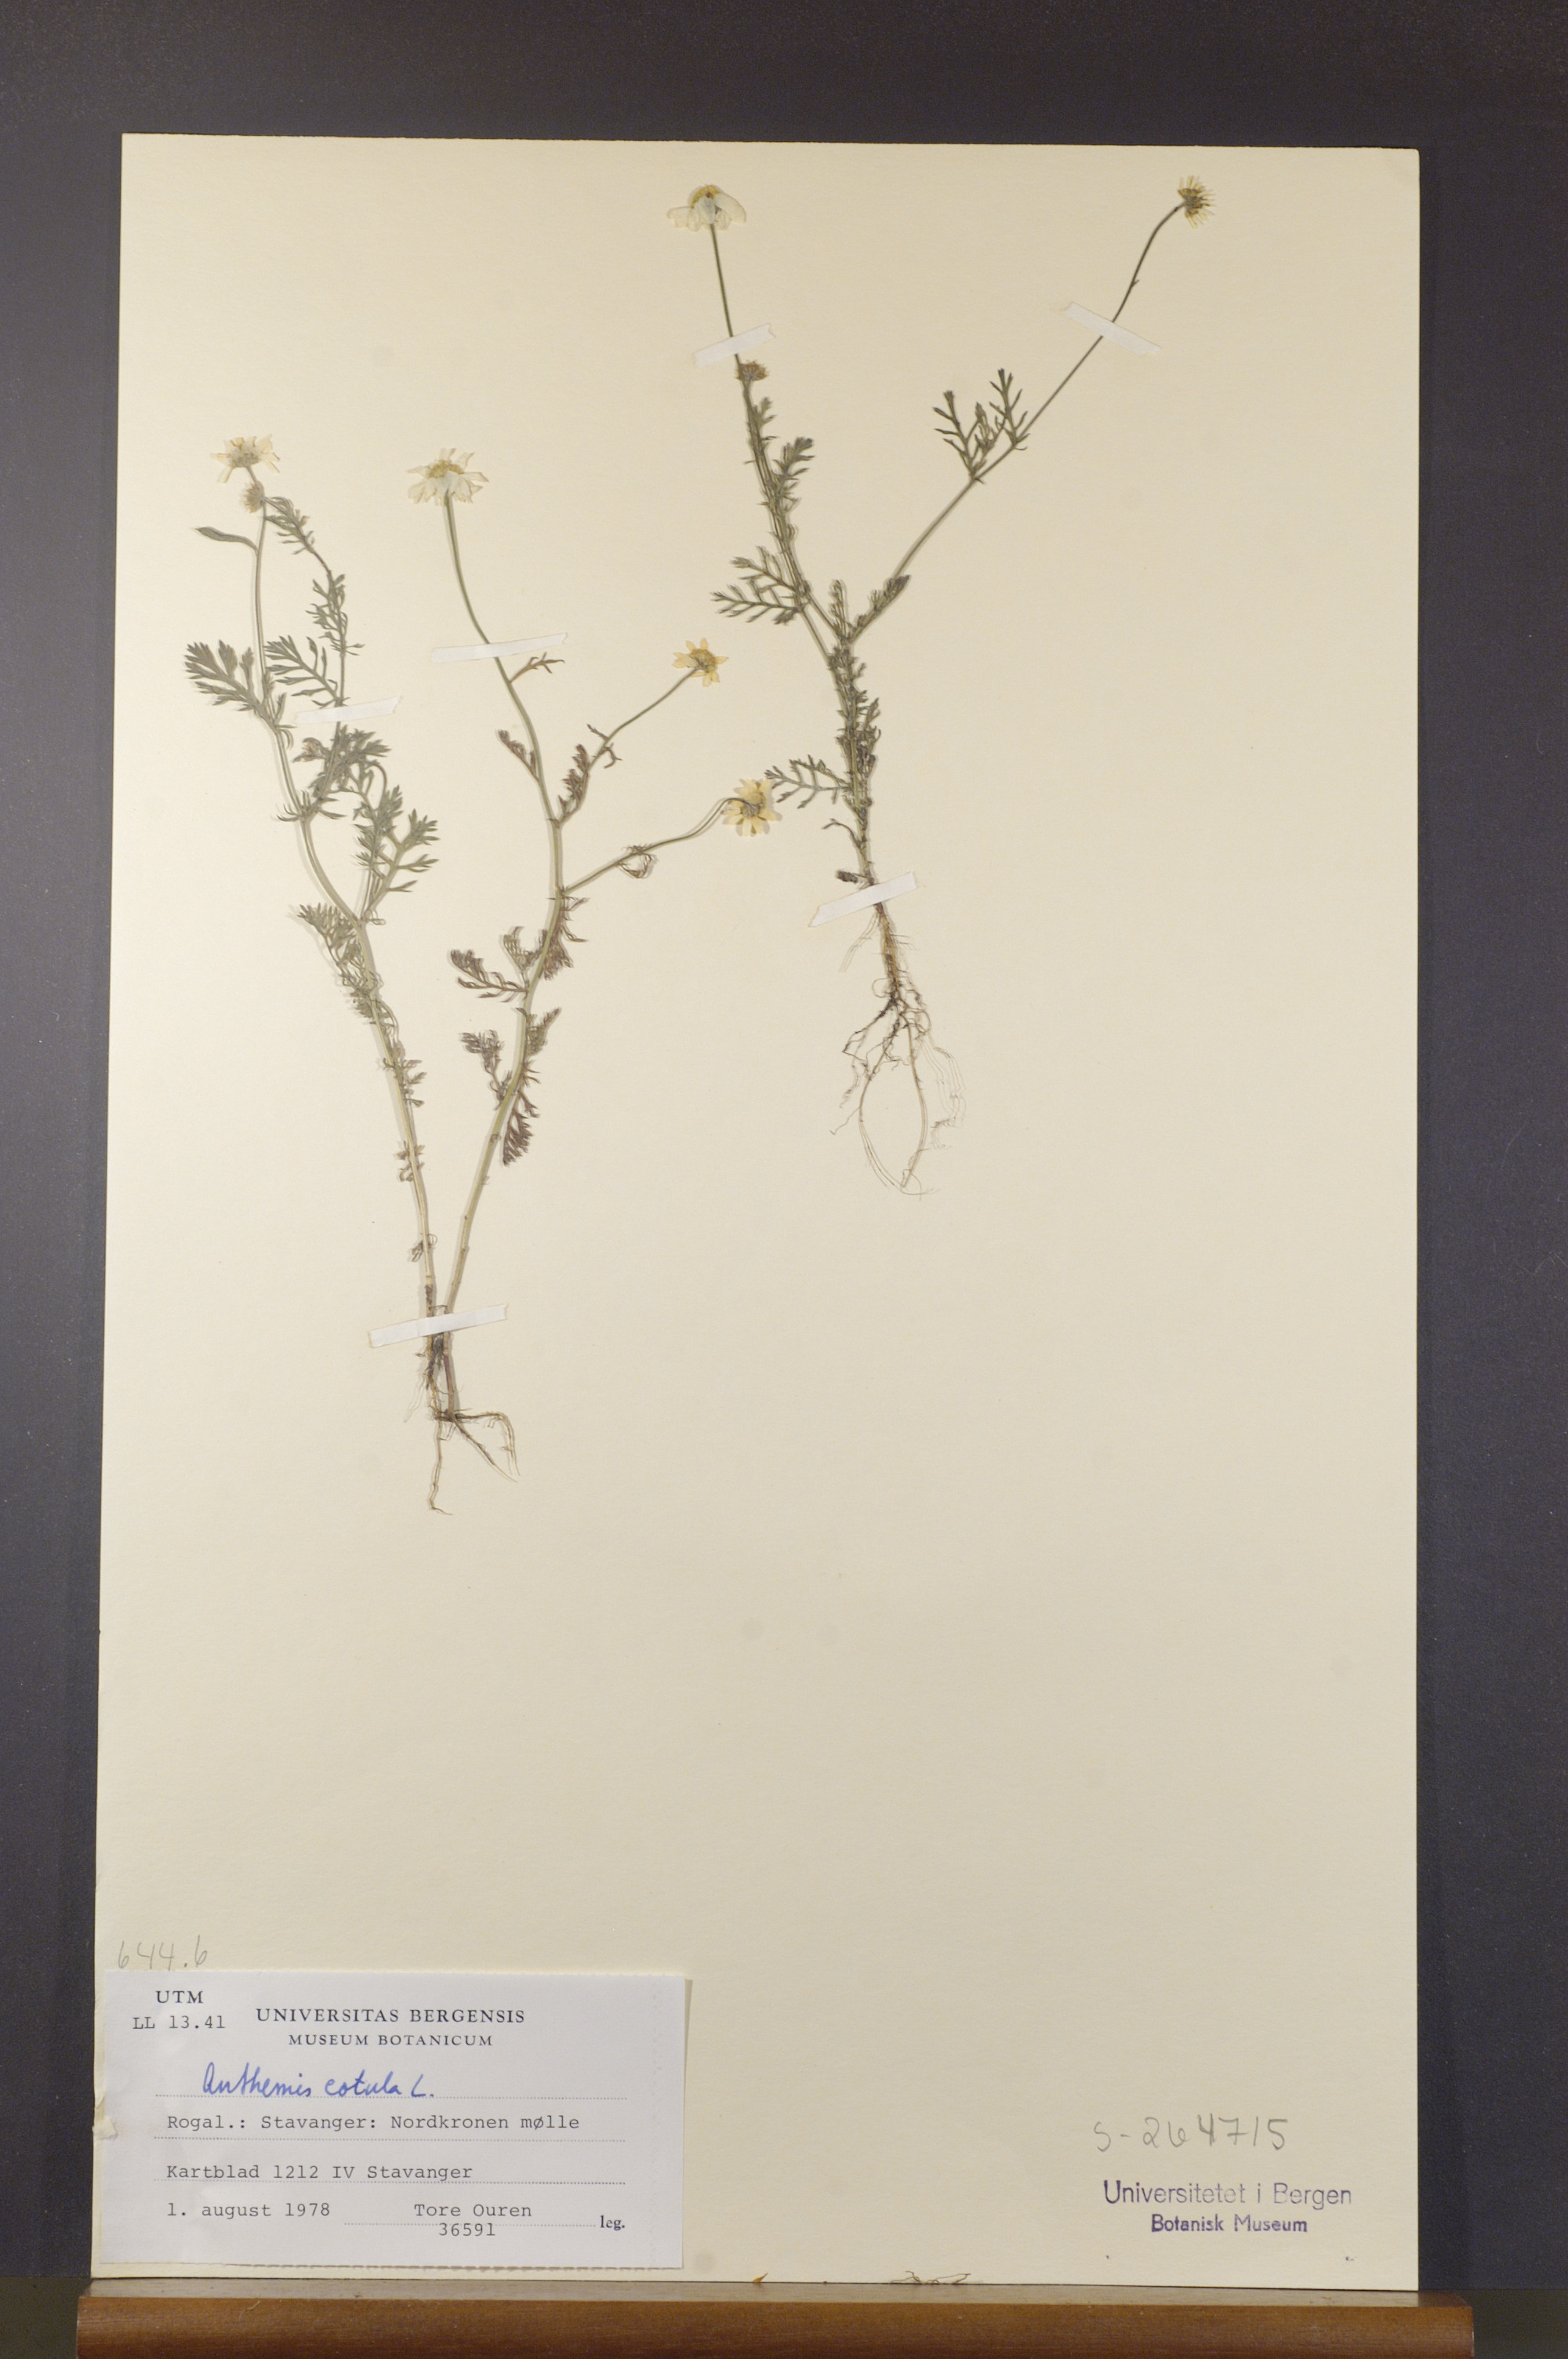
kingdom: Plantae
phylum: Tracheophyta
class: Magnoliopsida
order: Asterales
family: Asteraceae
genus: Anthemis
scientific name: Anthemis cotula
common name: Stinking chamomile
